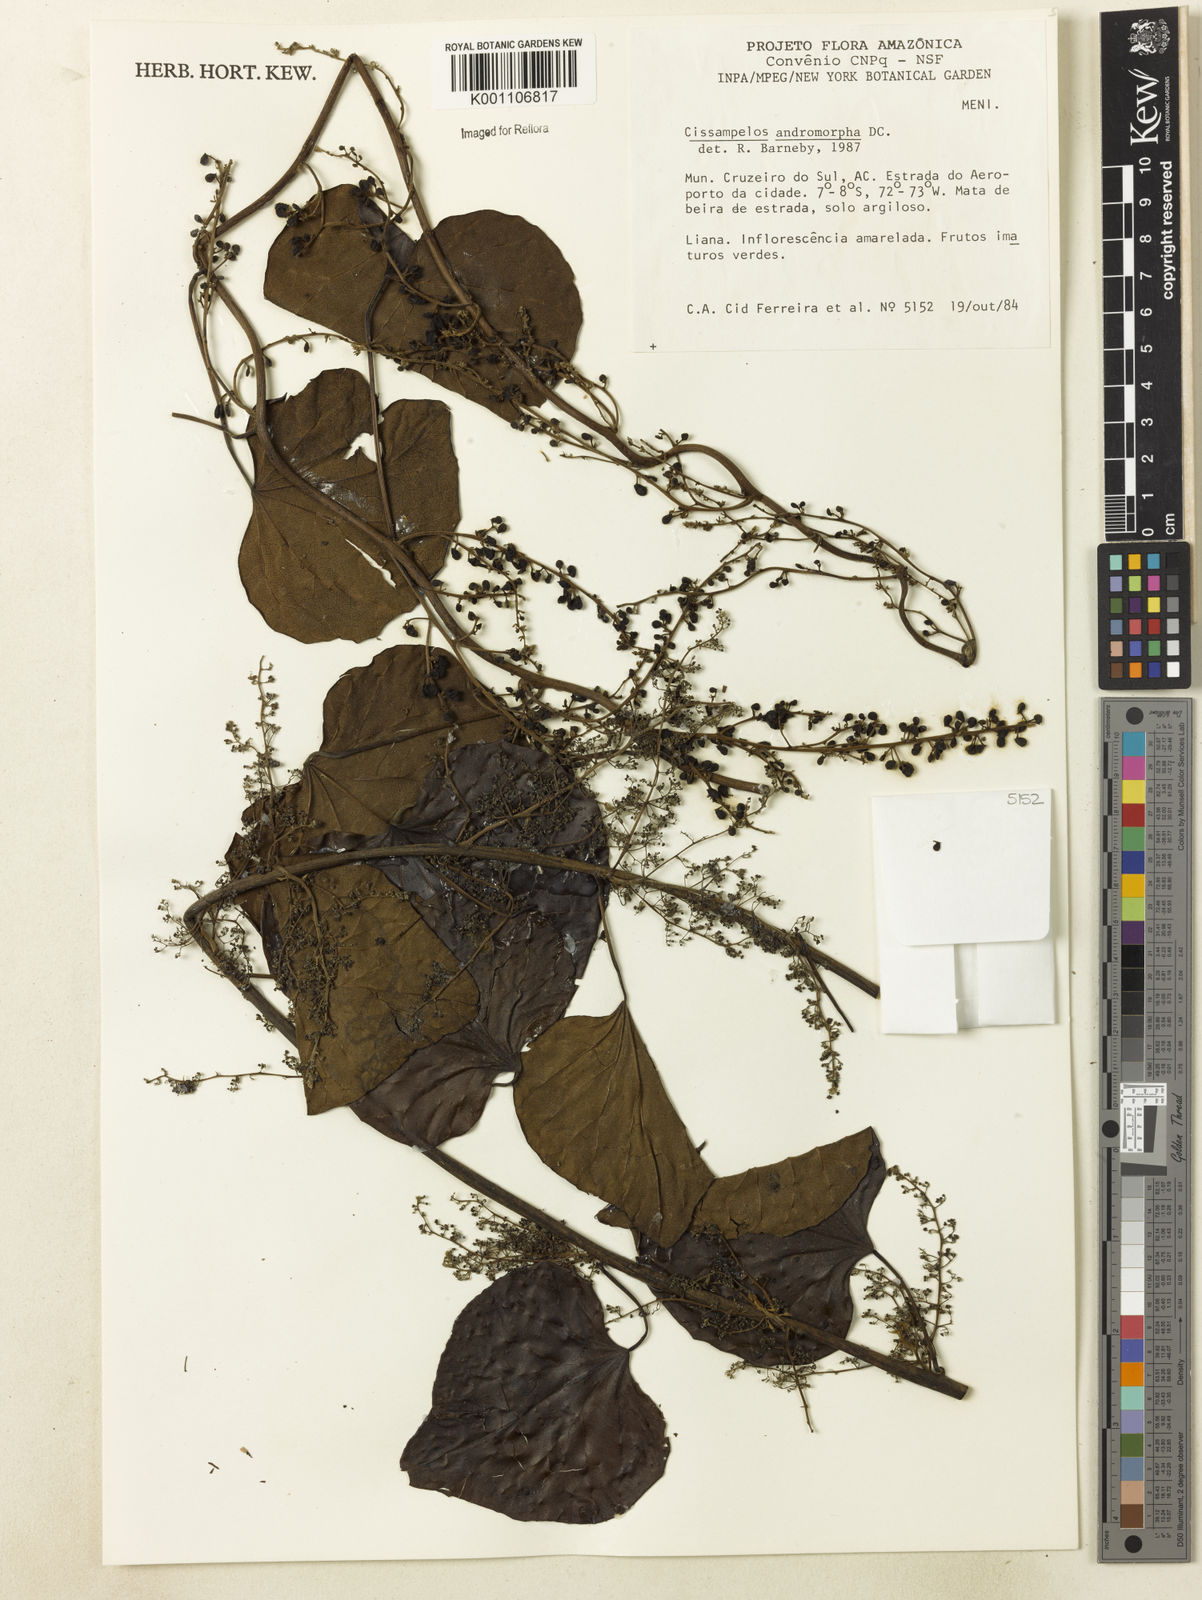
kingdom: Plantae
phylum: Tracheophyta
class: Magnoliopsida
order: Ranunculales
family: Menispermaceae
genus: Cissampelos
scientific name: Cissampelos andromorpha
